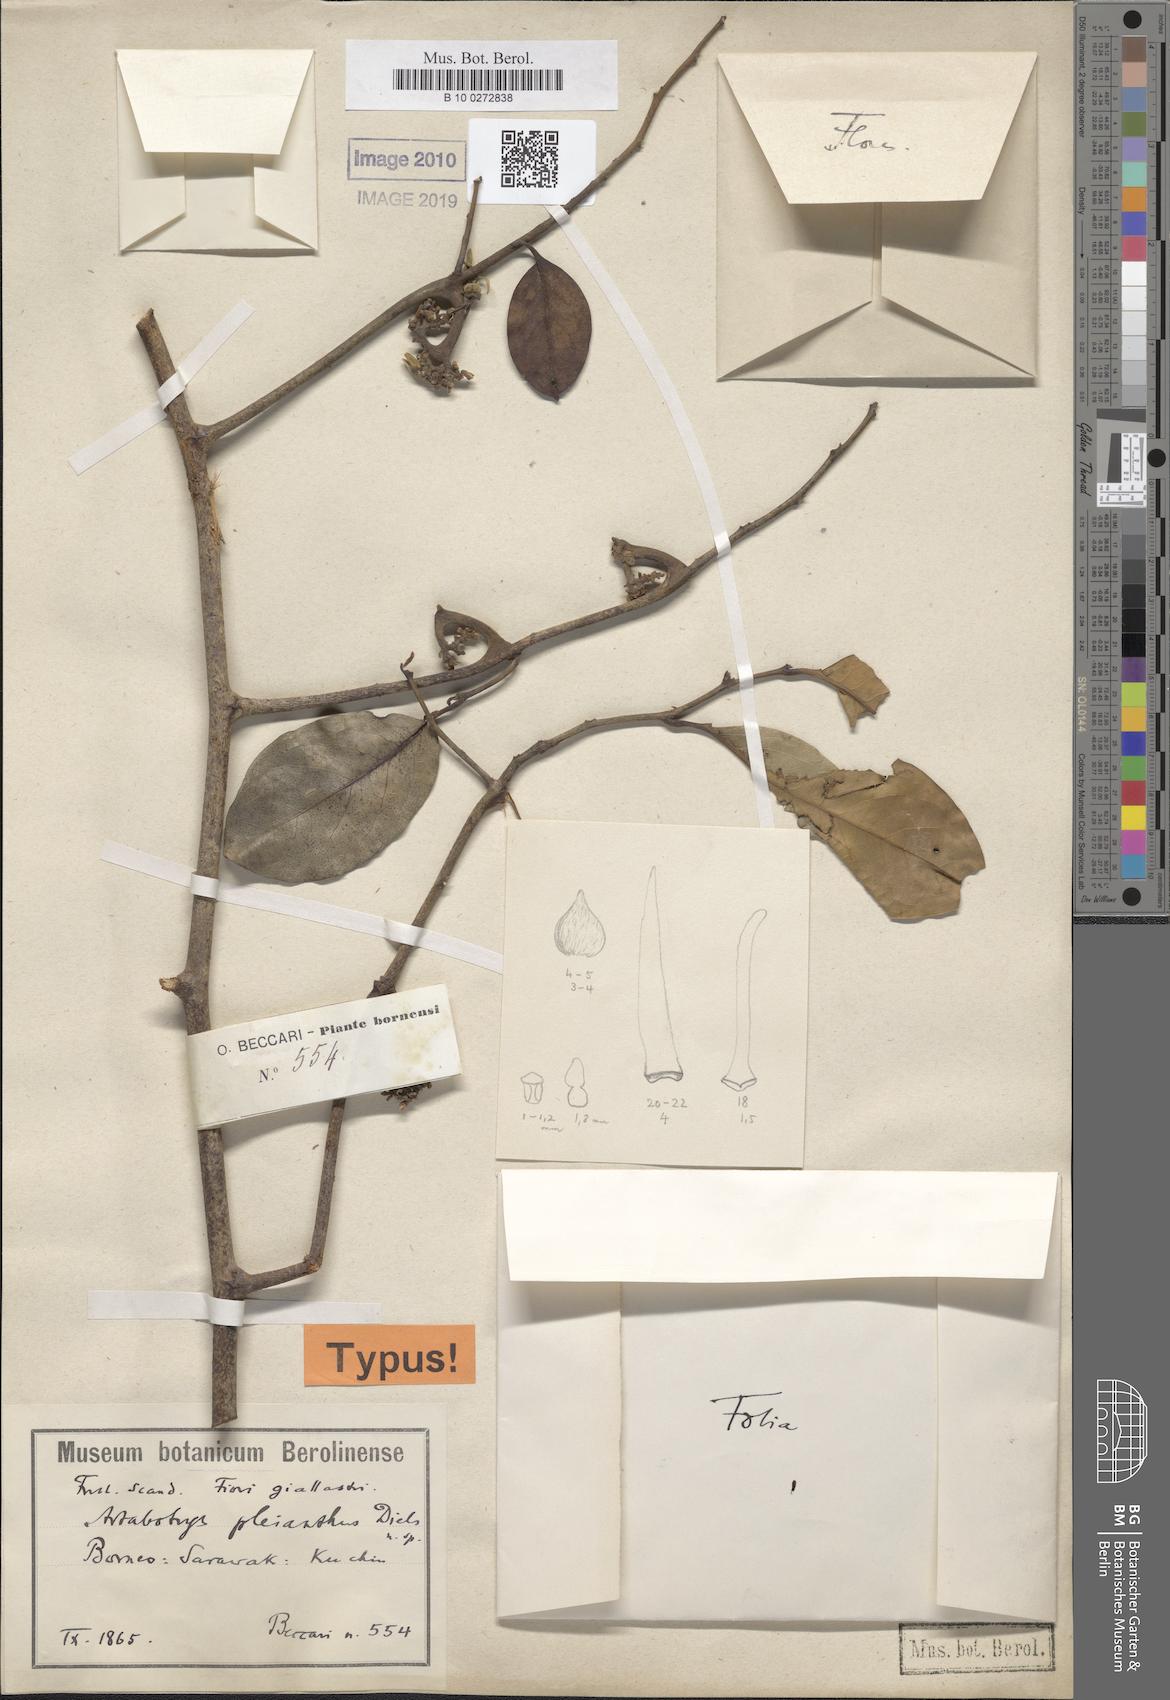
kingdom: Plantae
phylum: Tracheophyta
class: Magnoliopsida
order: Magnoliales
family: Annonaceae
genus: Artabotrys
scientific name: Artabotrys roseus
